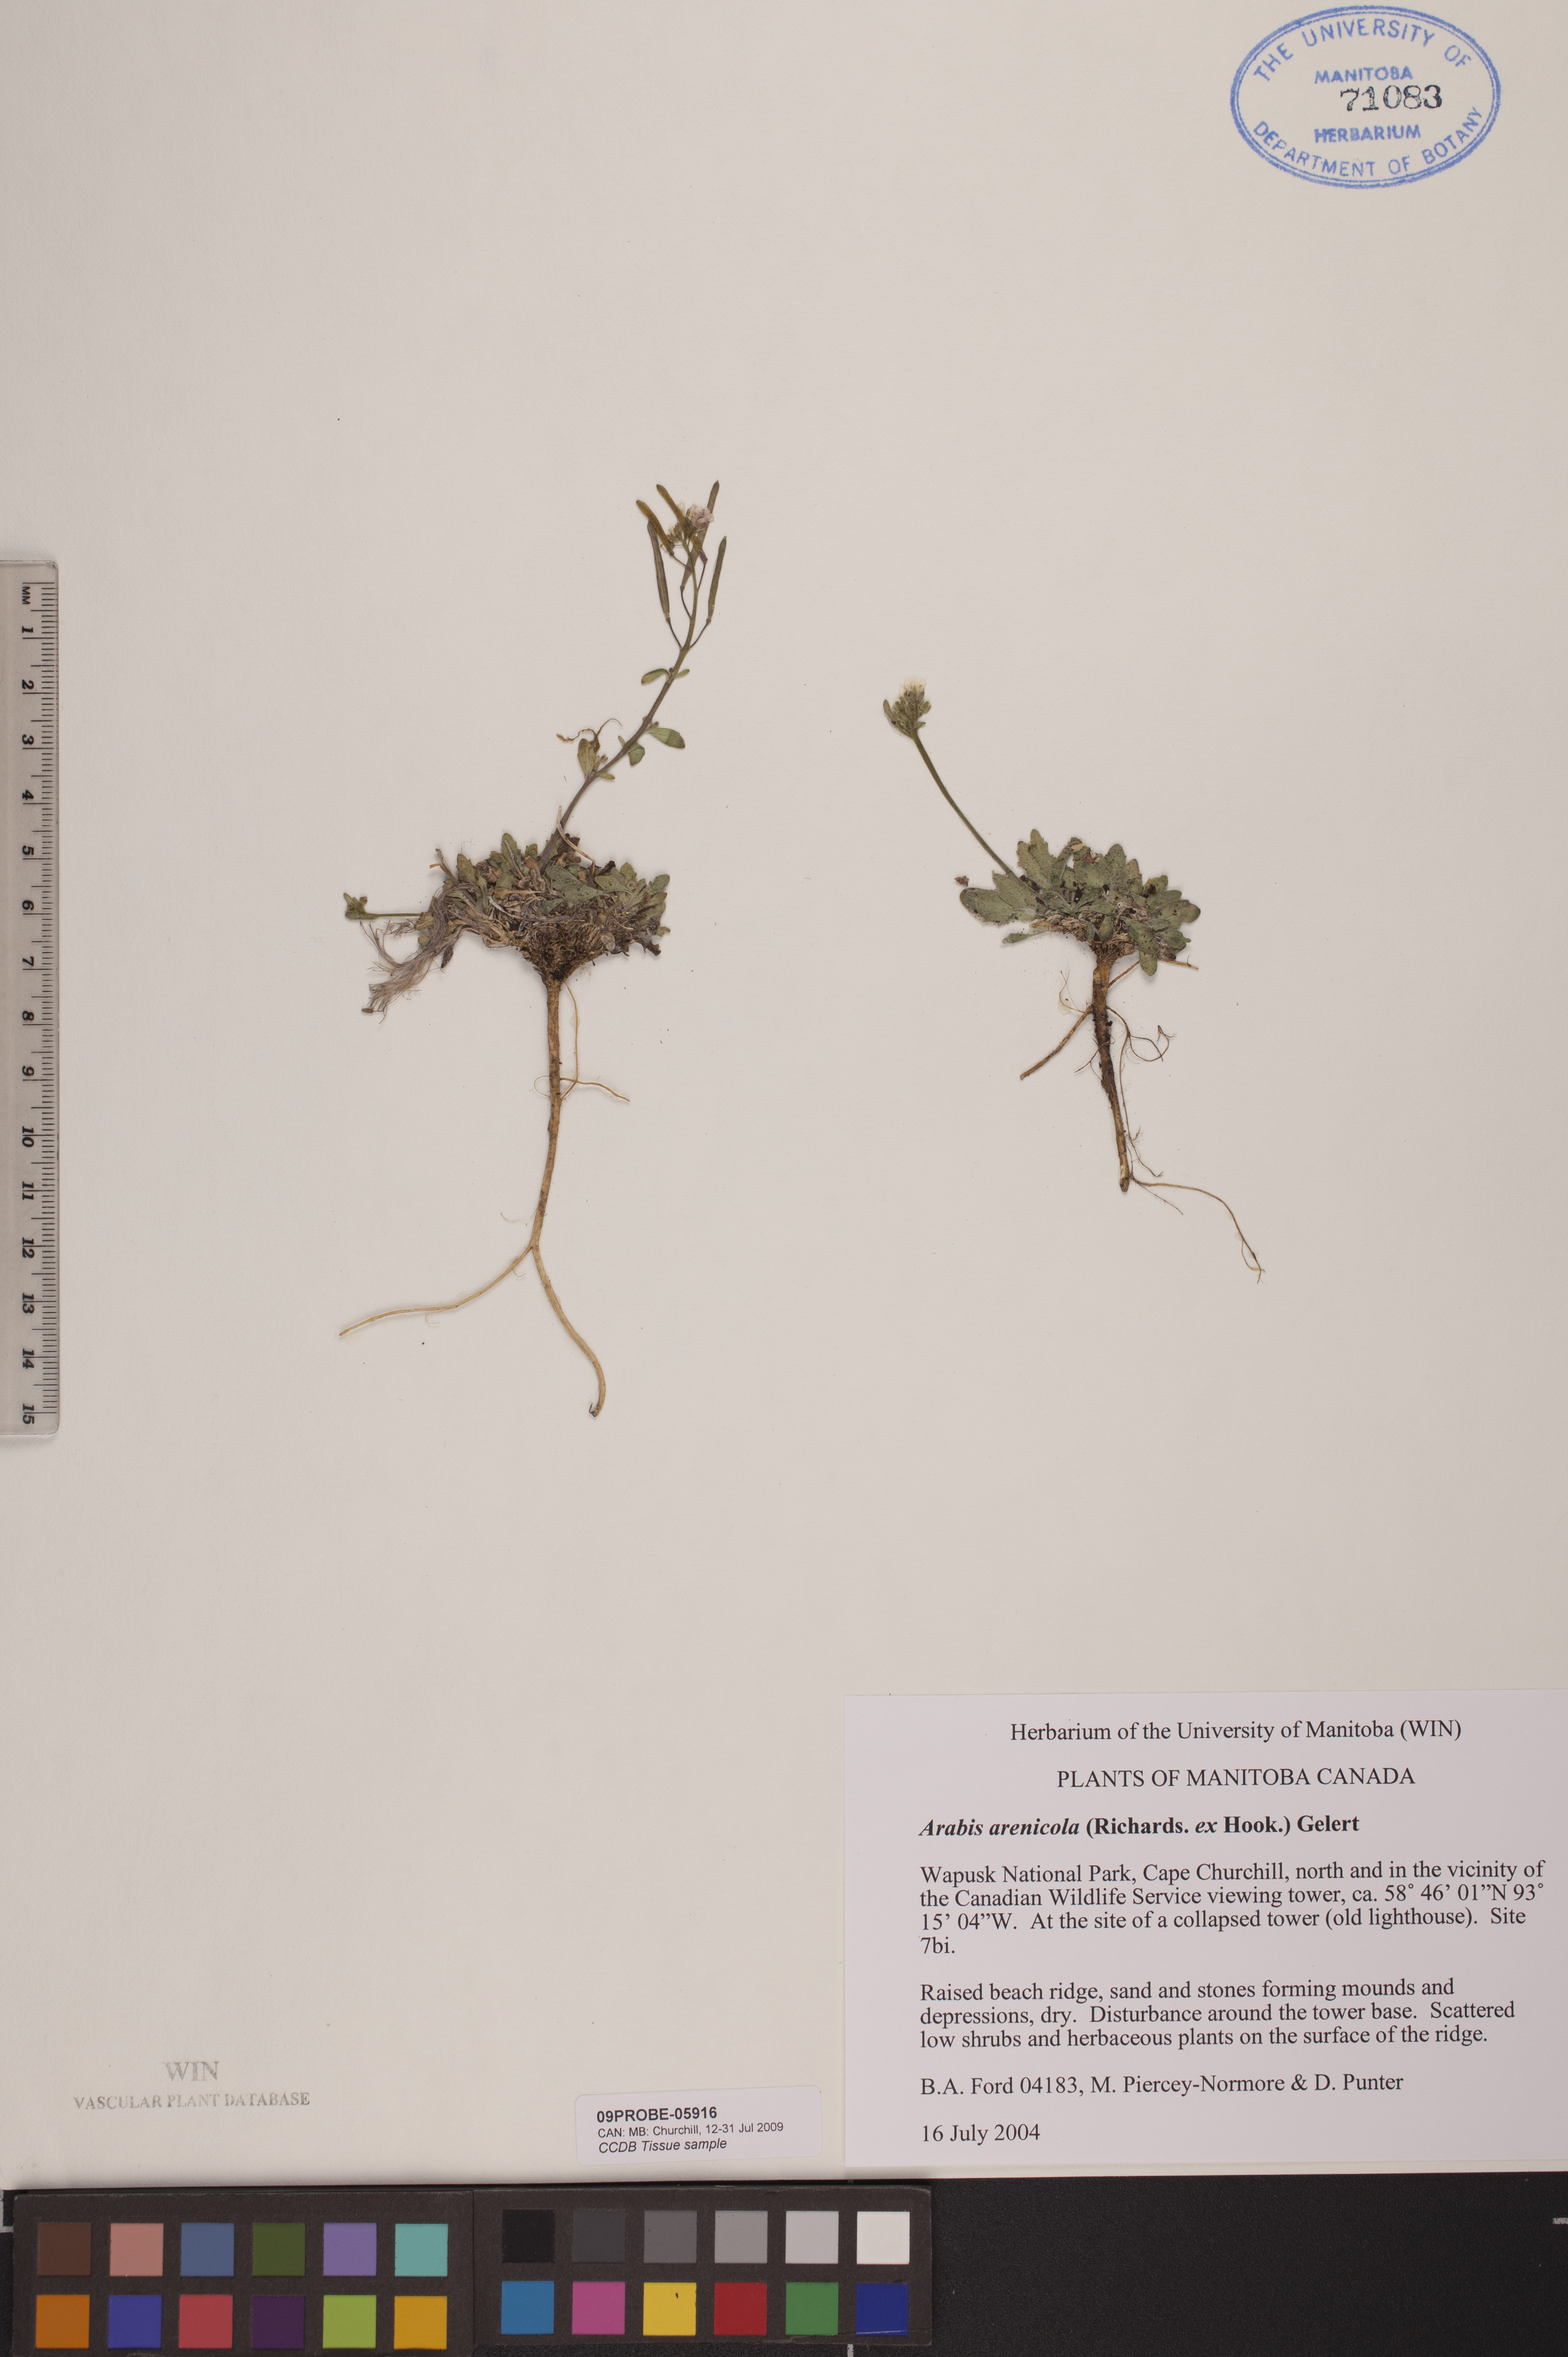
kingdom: Plantae
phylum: Tracheophyta
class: Magnoliopsida
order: Brassicales
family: Brassicaceae
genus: Arabidopsis
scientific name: Arabidopsis arenicola
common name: Arctic rockcress
